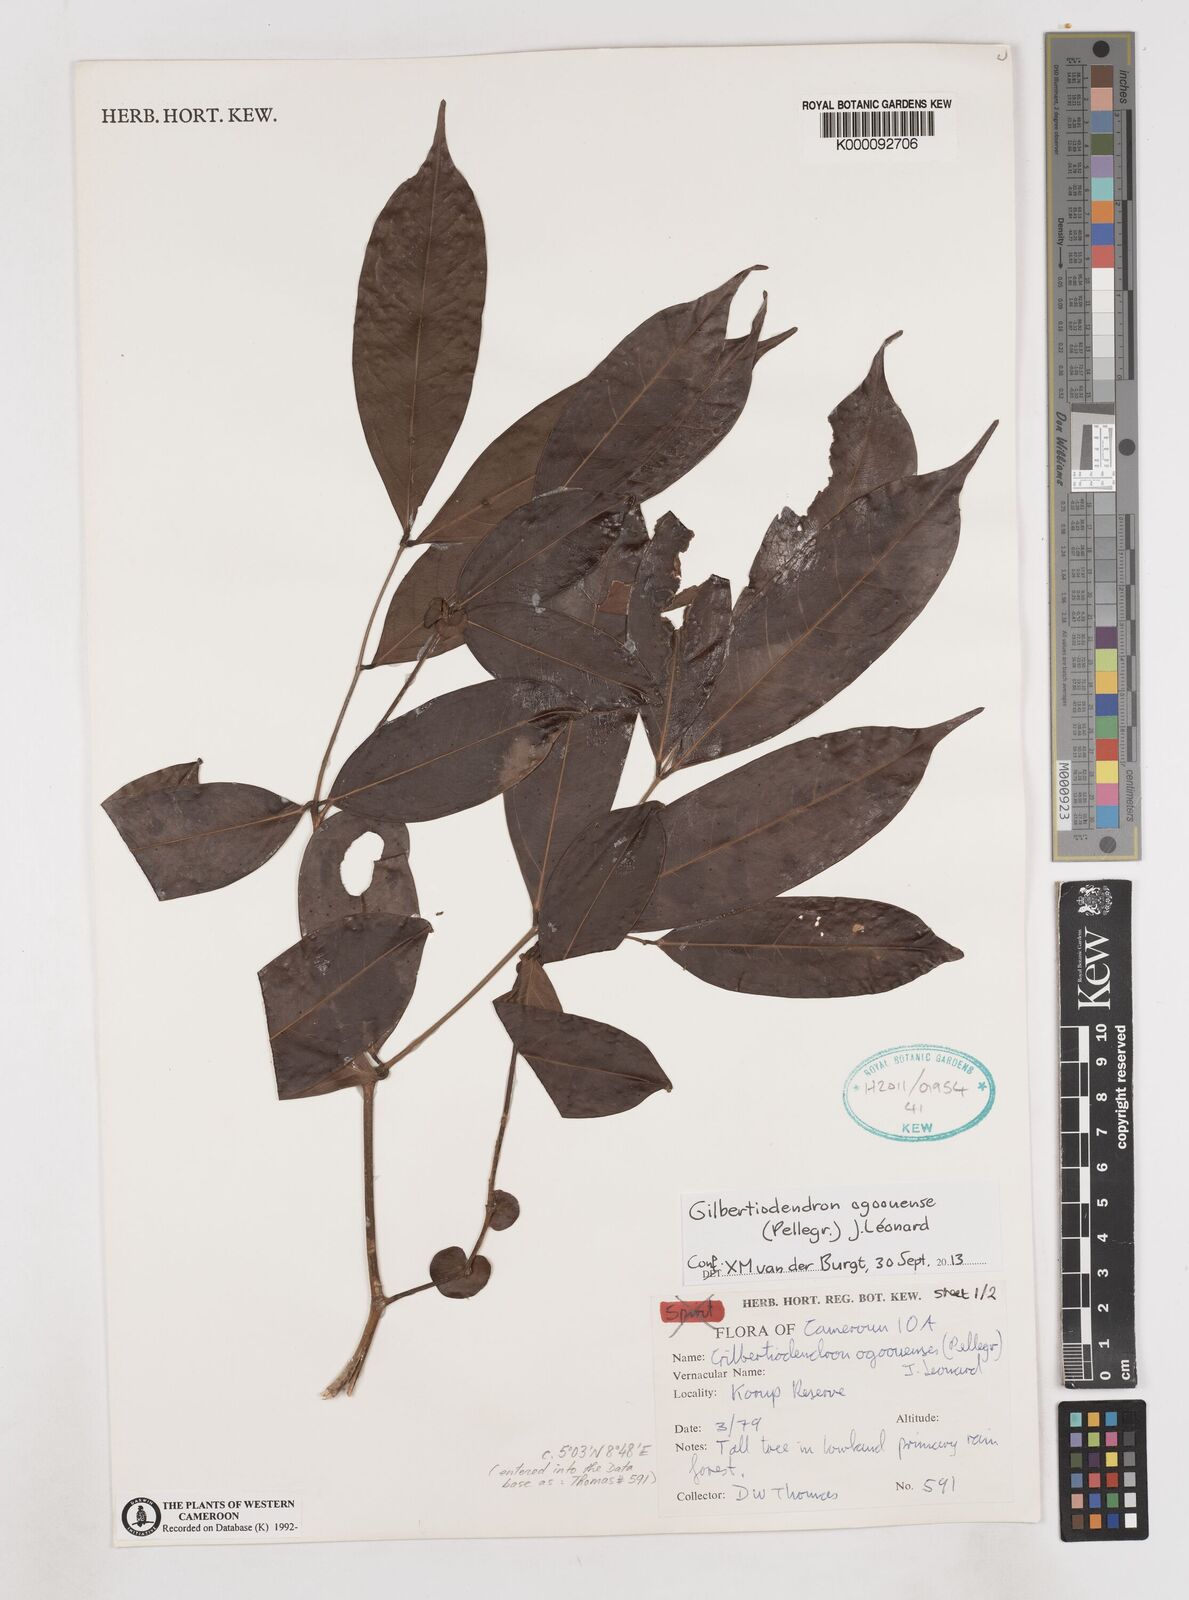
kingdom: Plantae
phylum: Tracheophyta
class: Magnoliopsida
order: Fabales
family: Fabaceae
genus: Gilbertiodendron
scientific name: Gilbertiodendron
